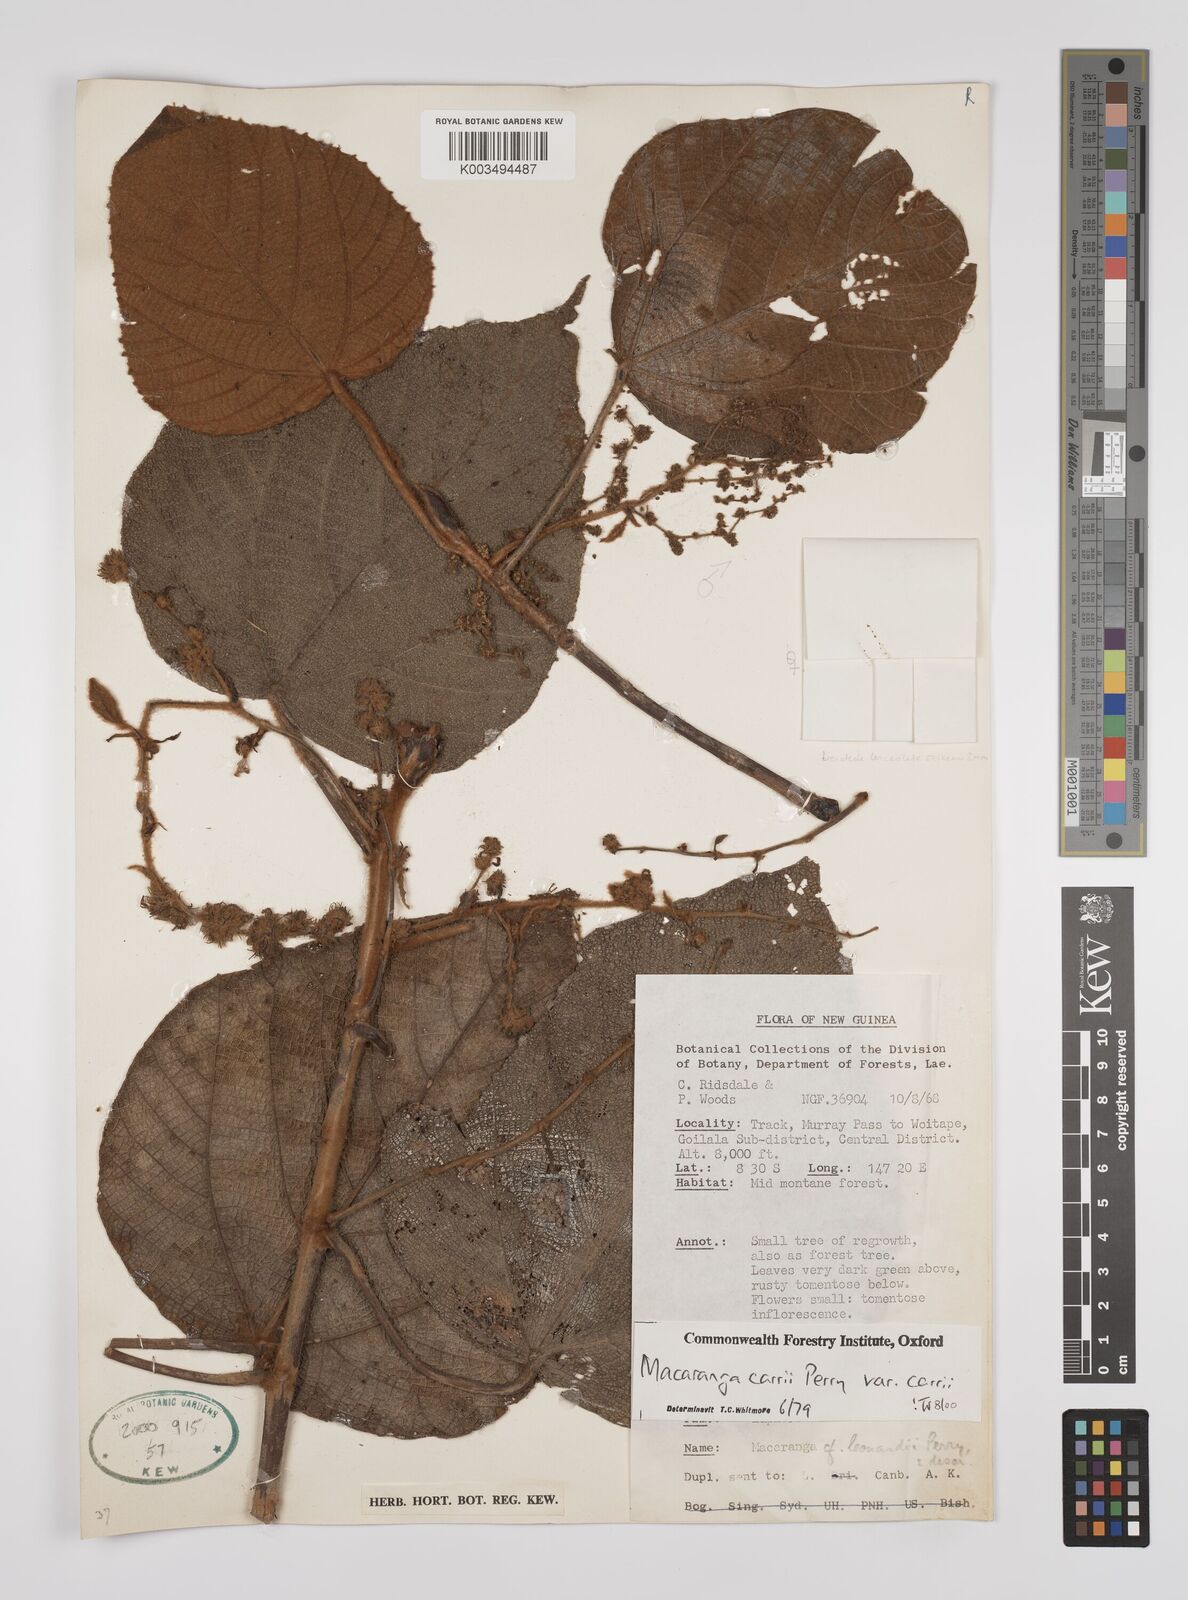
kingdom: Plantae
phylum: Tracheophyta
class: Magnoliopsida
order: Malpighiales
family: Euphorbiaceae
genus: Macaranga
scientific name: Macaranga carrii
